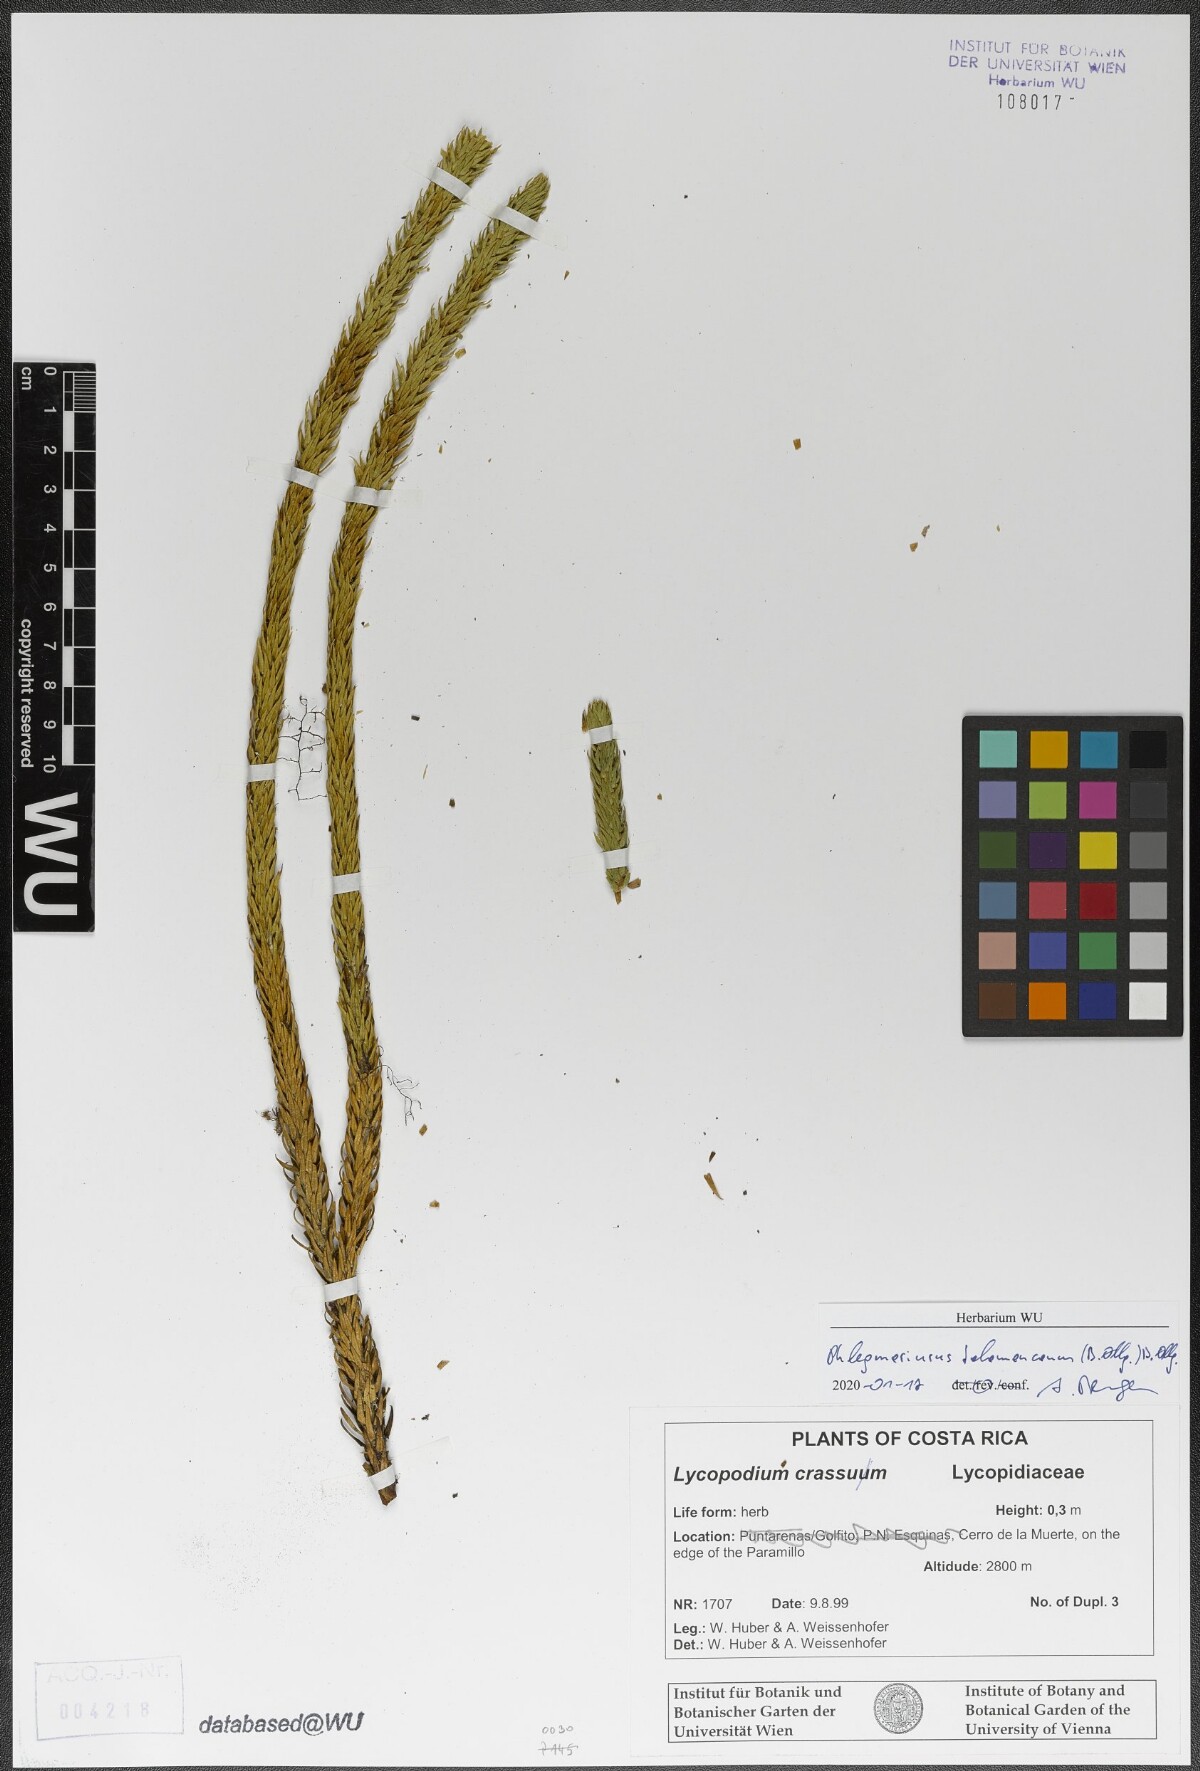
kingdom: Plantae
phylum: Tracheophyta
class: Lycopodiopsida
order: Lycopodiales
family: Lycopodiaceae
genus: Phlegmariurus
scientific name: Phlegmariurus talamancanus
